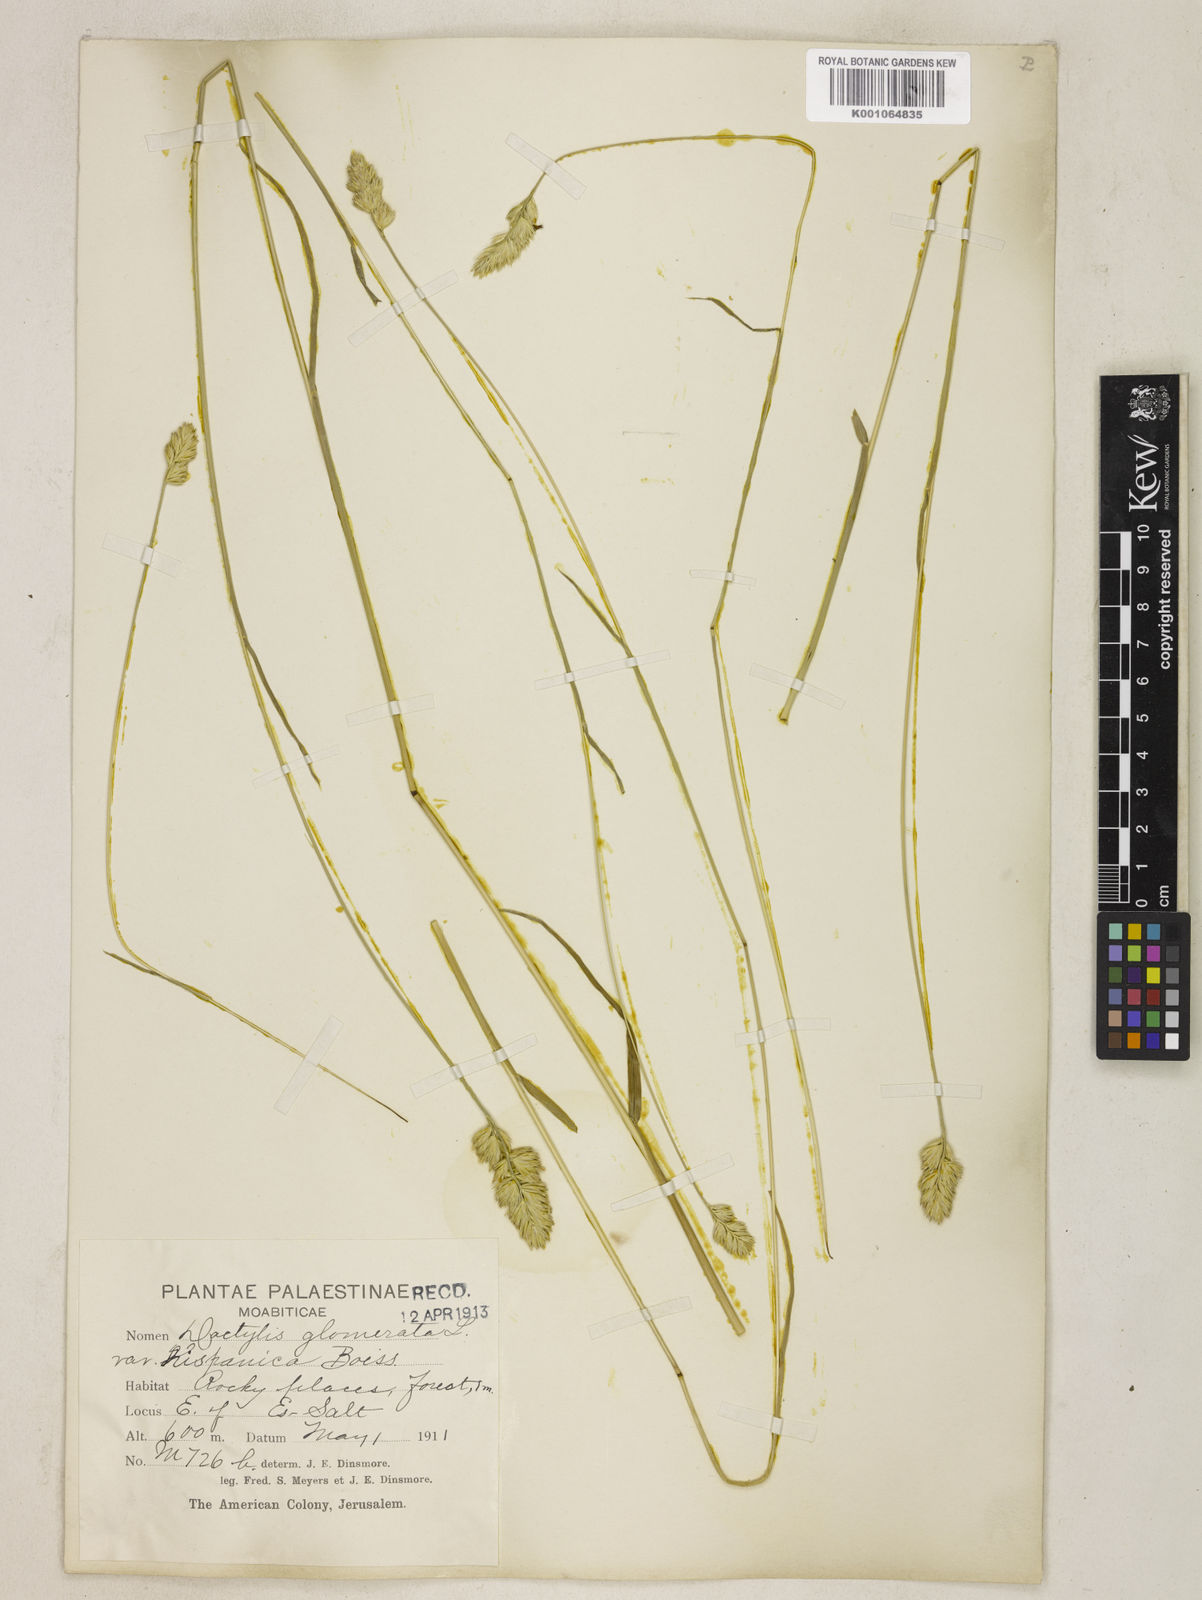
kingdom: Plantae
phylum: Tracheophyta
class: Liliopsida
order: Poales
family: Poaceae
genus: Dactylis
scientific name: Dactylis glomerata
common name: Orchardgrass
